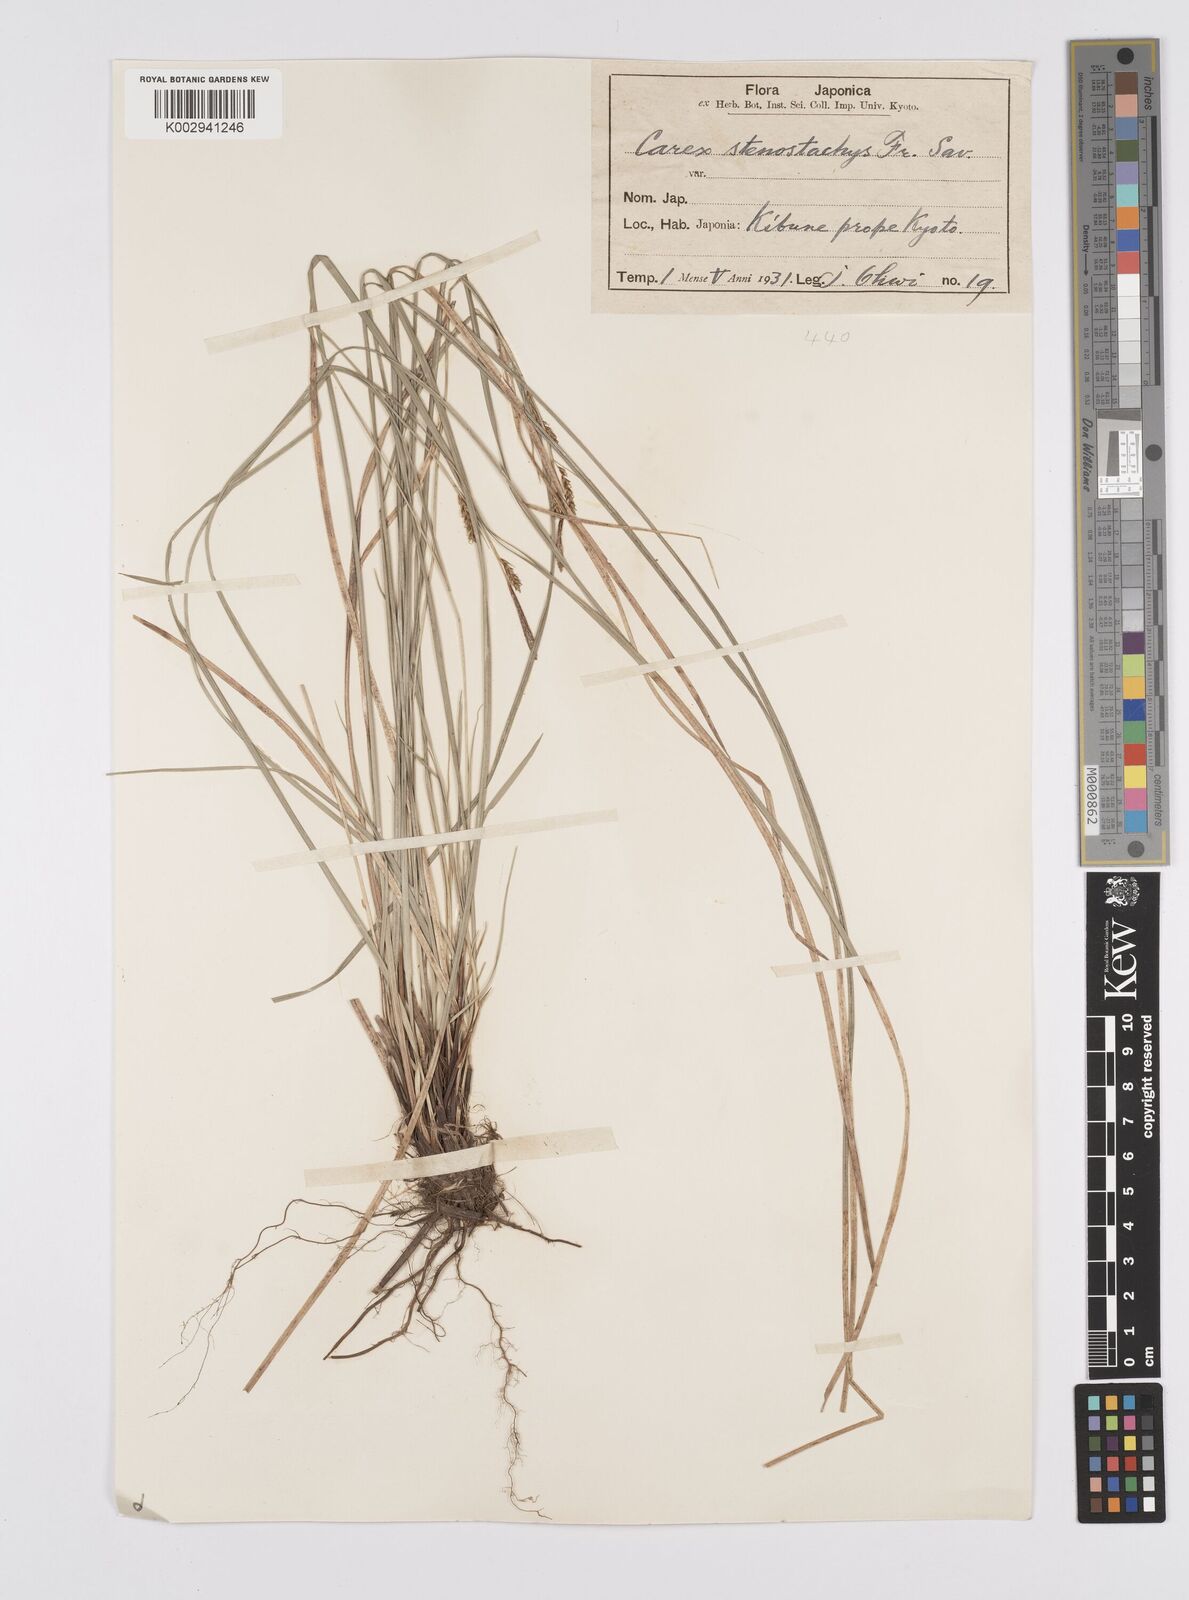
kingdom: Plantae
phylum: Tracheophyta
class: Liliopsida
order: Poales
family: Cyperaceae
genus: Carex
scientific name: Carex pisiformis
